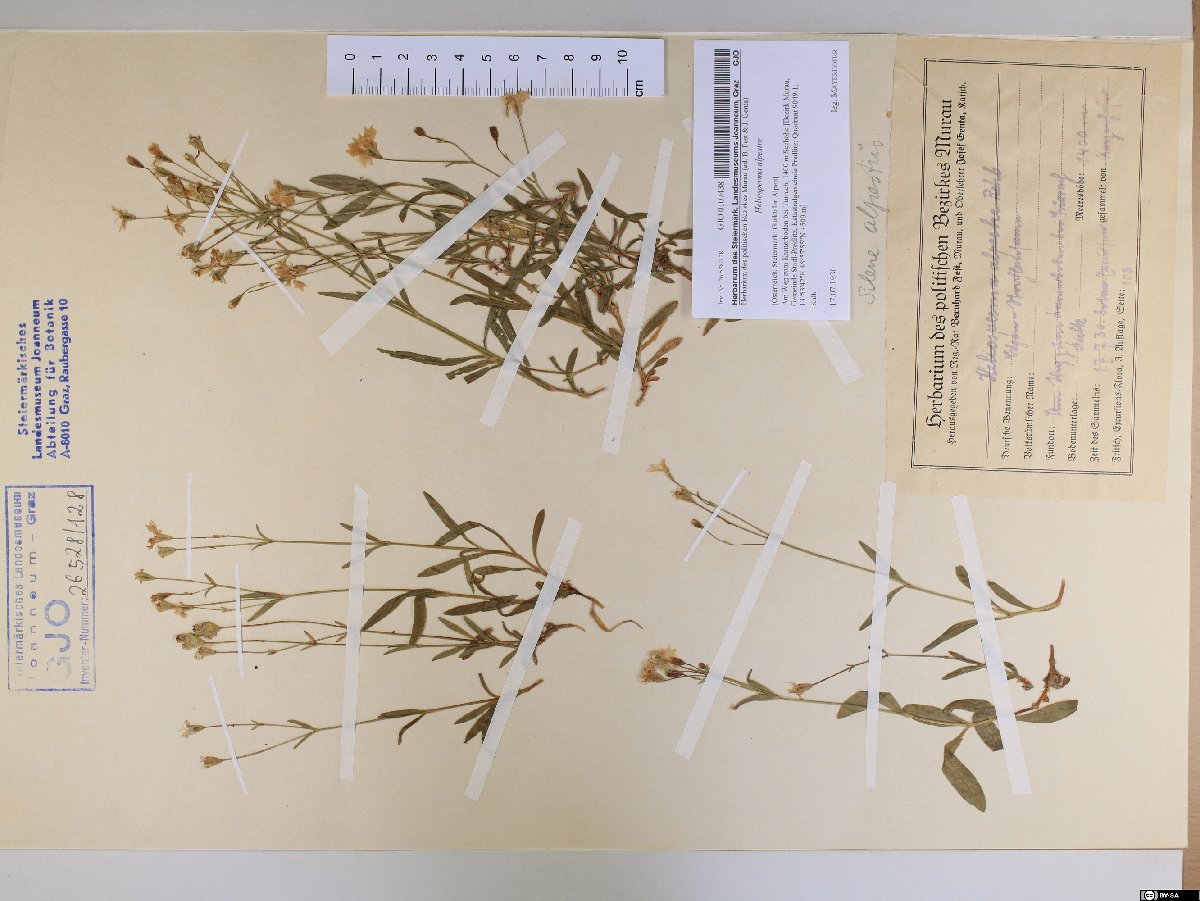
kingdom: Plantae
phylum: Tracheophyta
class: Magnoliopsida
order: Caryophyllales
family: Caryophyllaceae
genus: Heliosperma
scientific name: Heliosperma alpestre
